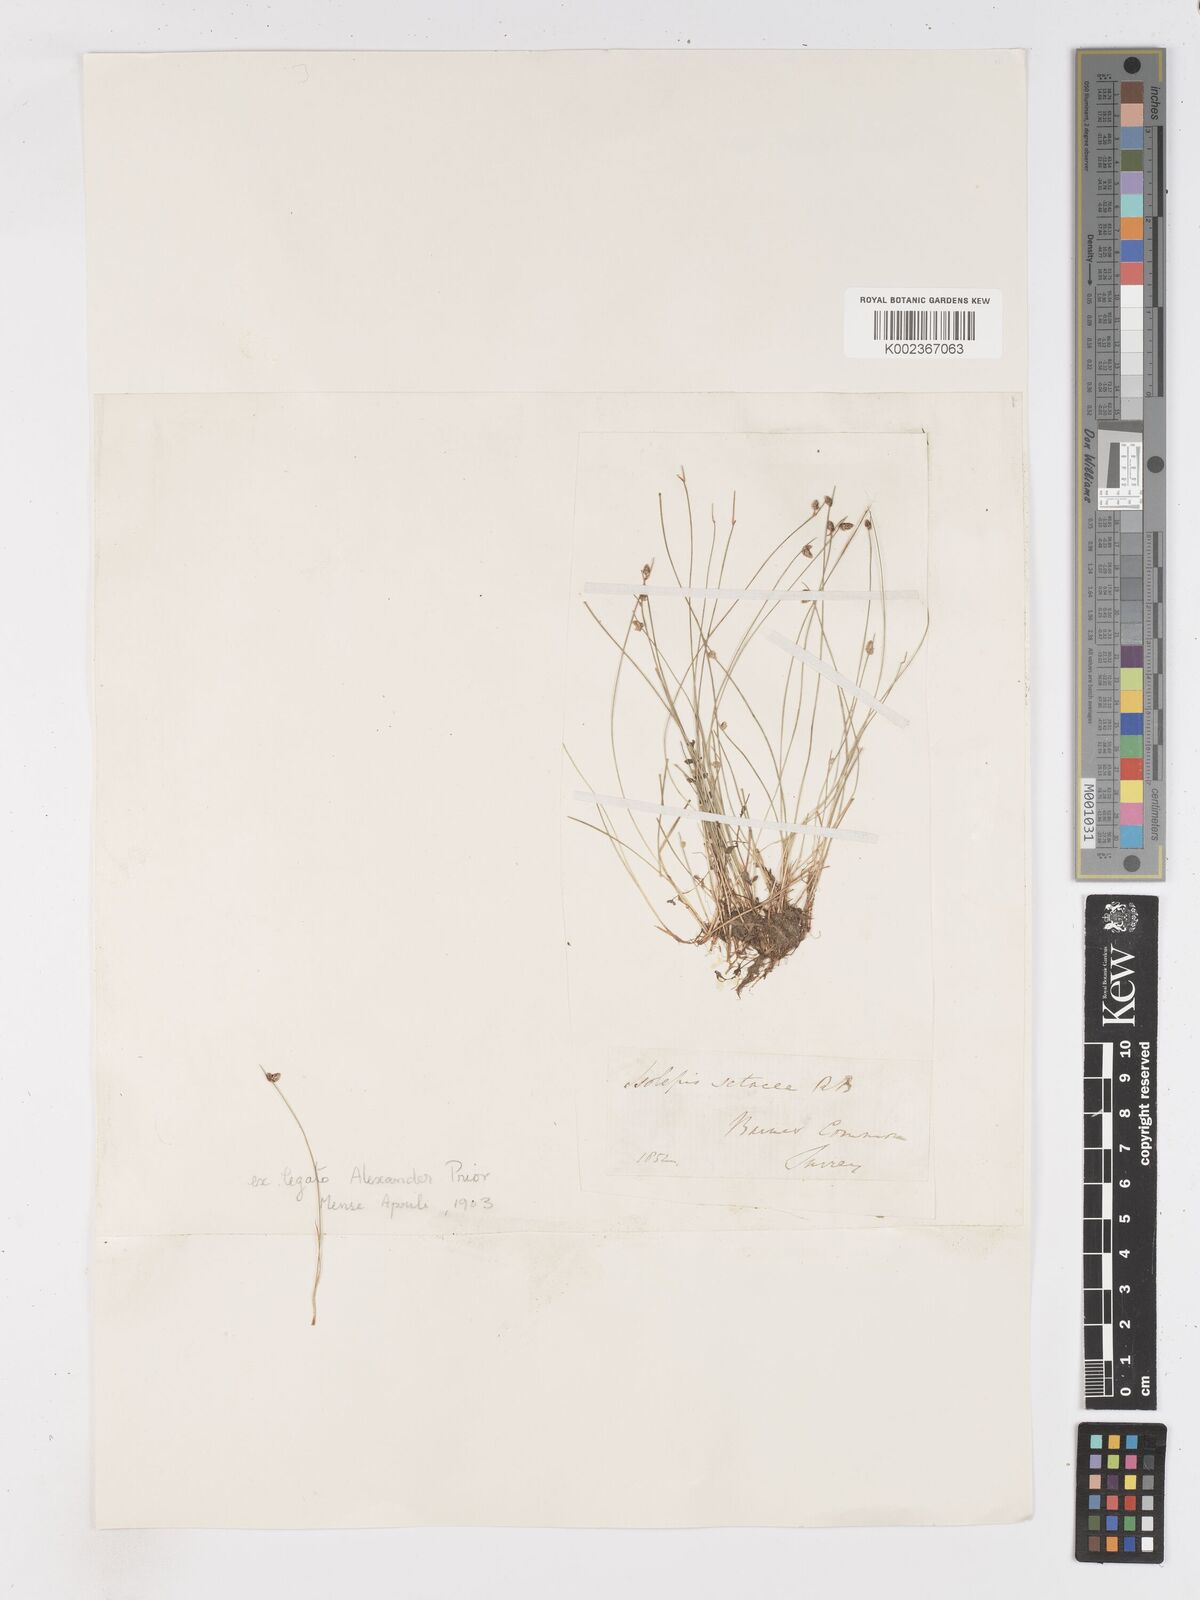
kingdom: Plantae
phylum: Tracheophyta
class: Liliopsida
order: Poales
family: Cyperaceae
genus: Isolepis
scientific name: Isolepis setacea
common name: Bristle club-rush
